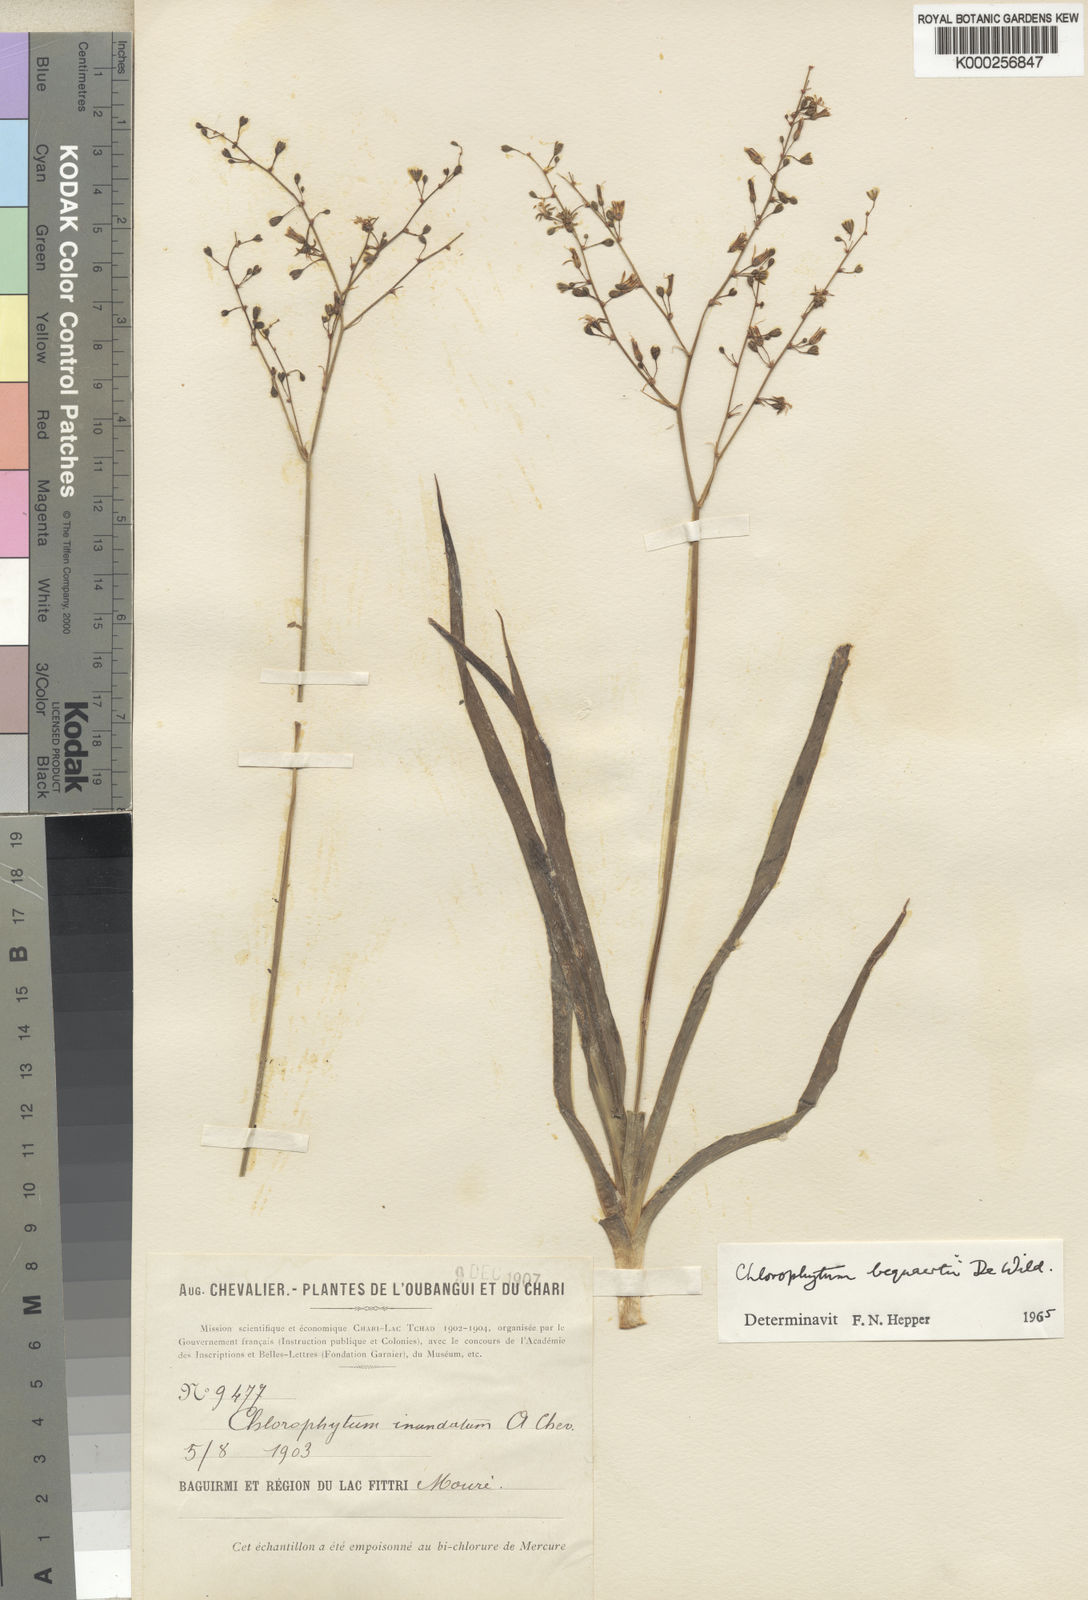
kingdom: Plantae
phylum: Tracheophyta
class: Liliopsida
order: Asparagales
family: Asparagaceae
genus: Chlorophytum
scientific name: Chlorophytum gallabatense
